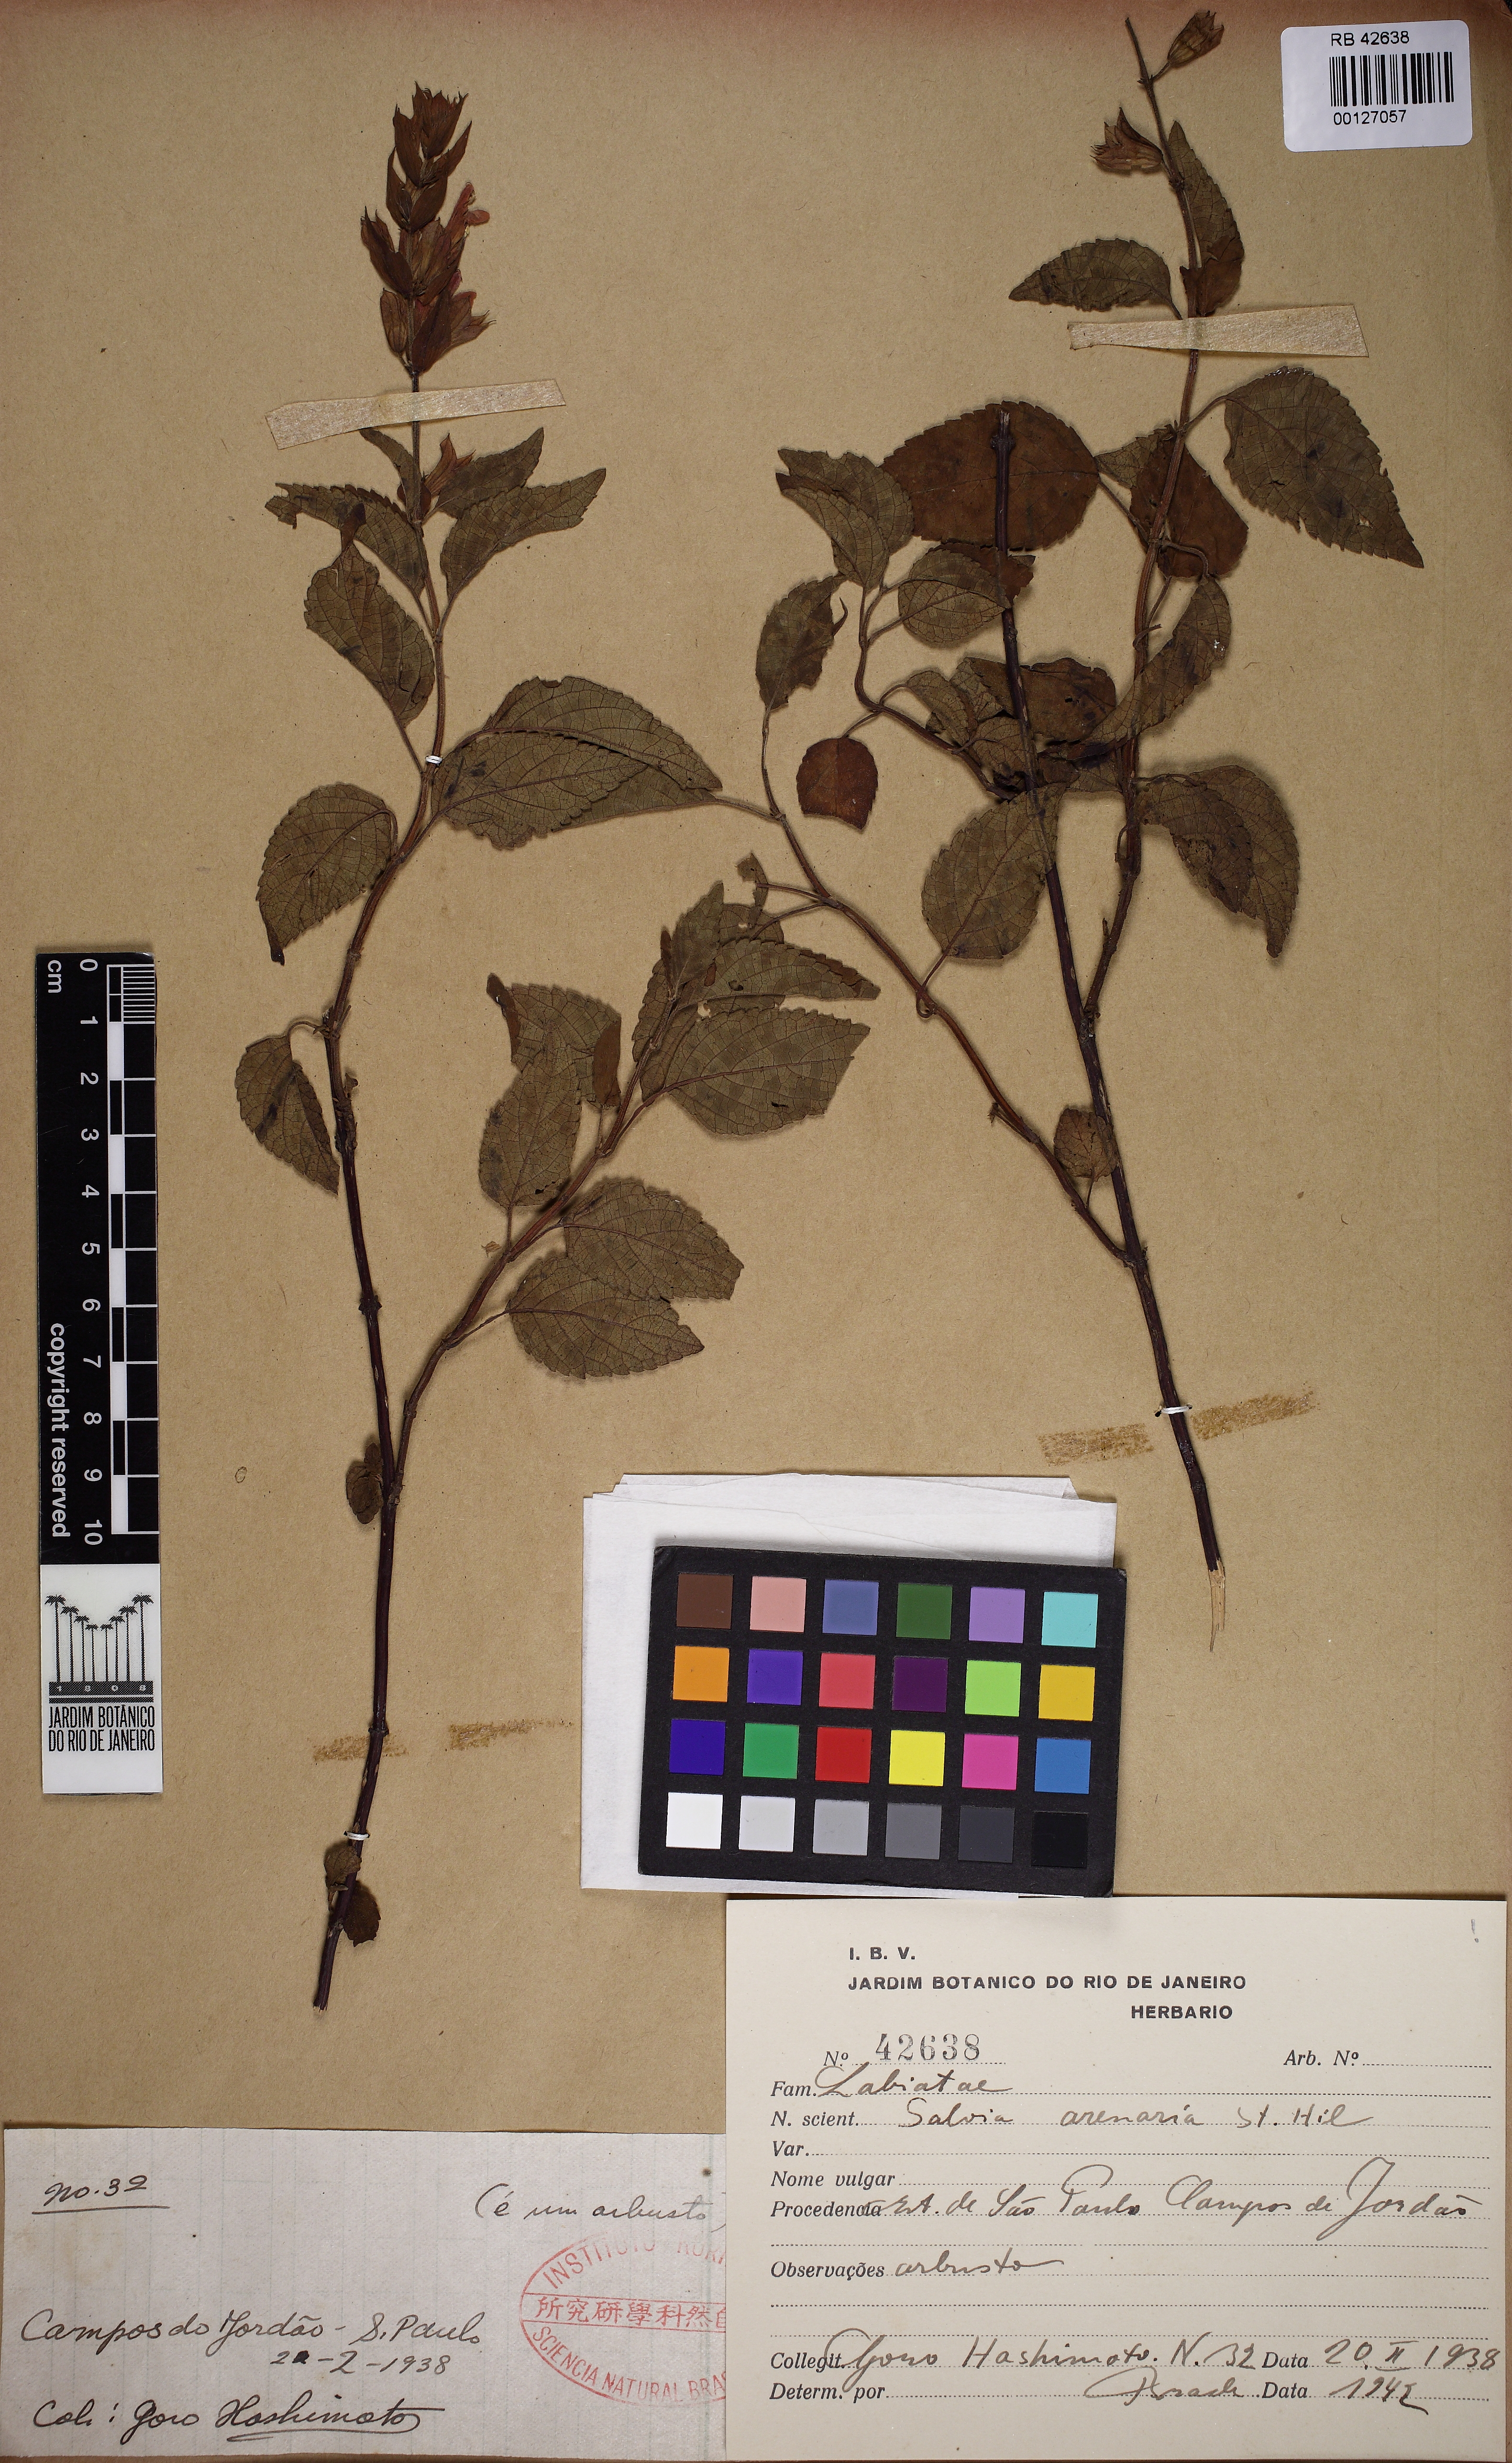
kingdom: Plantae
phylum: Tracheophyta
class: Magnoliopsida
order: Lamiales
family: Lamiaceae
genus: Salvia
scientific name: Salvia arenaria
